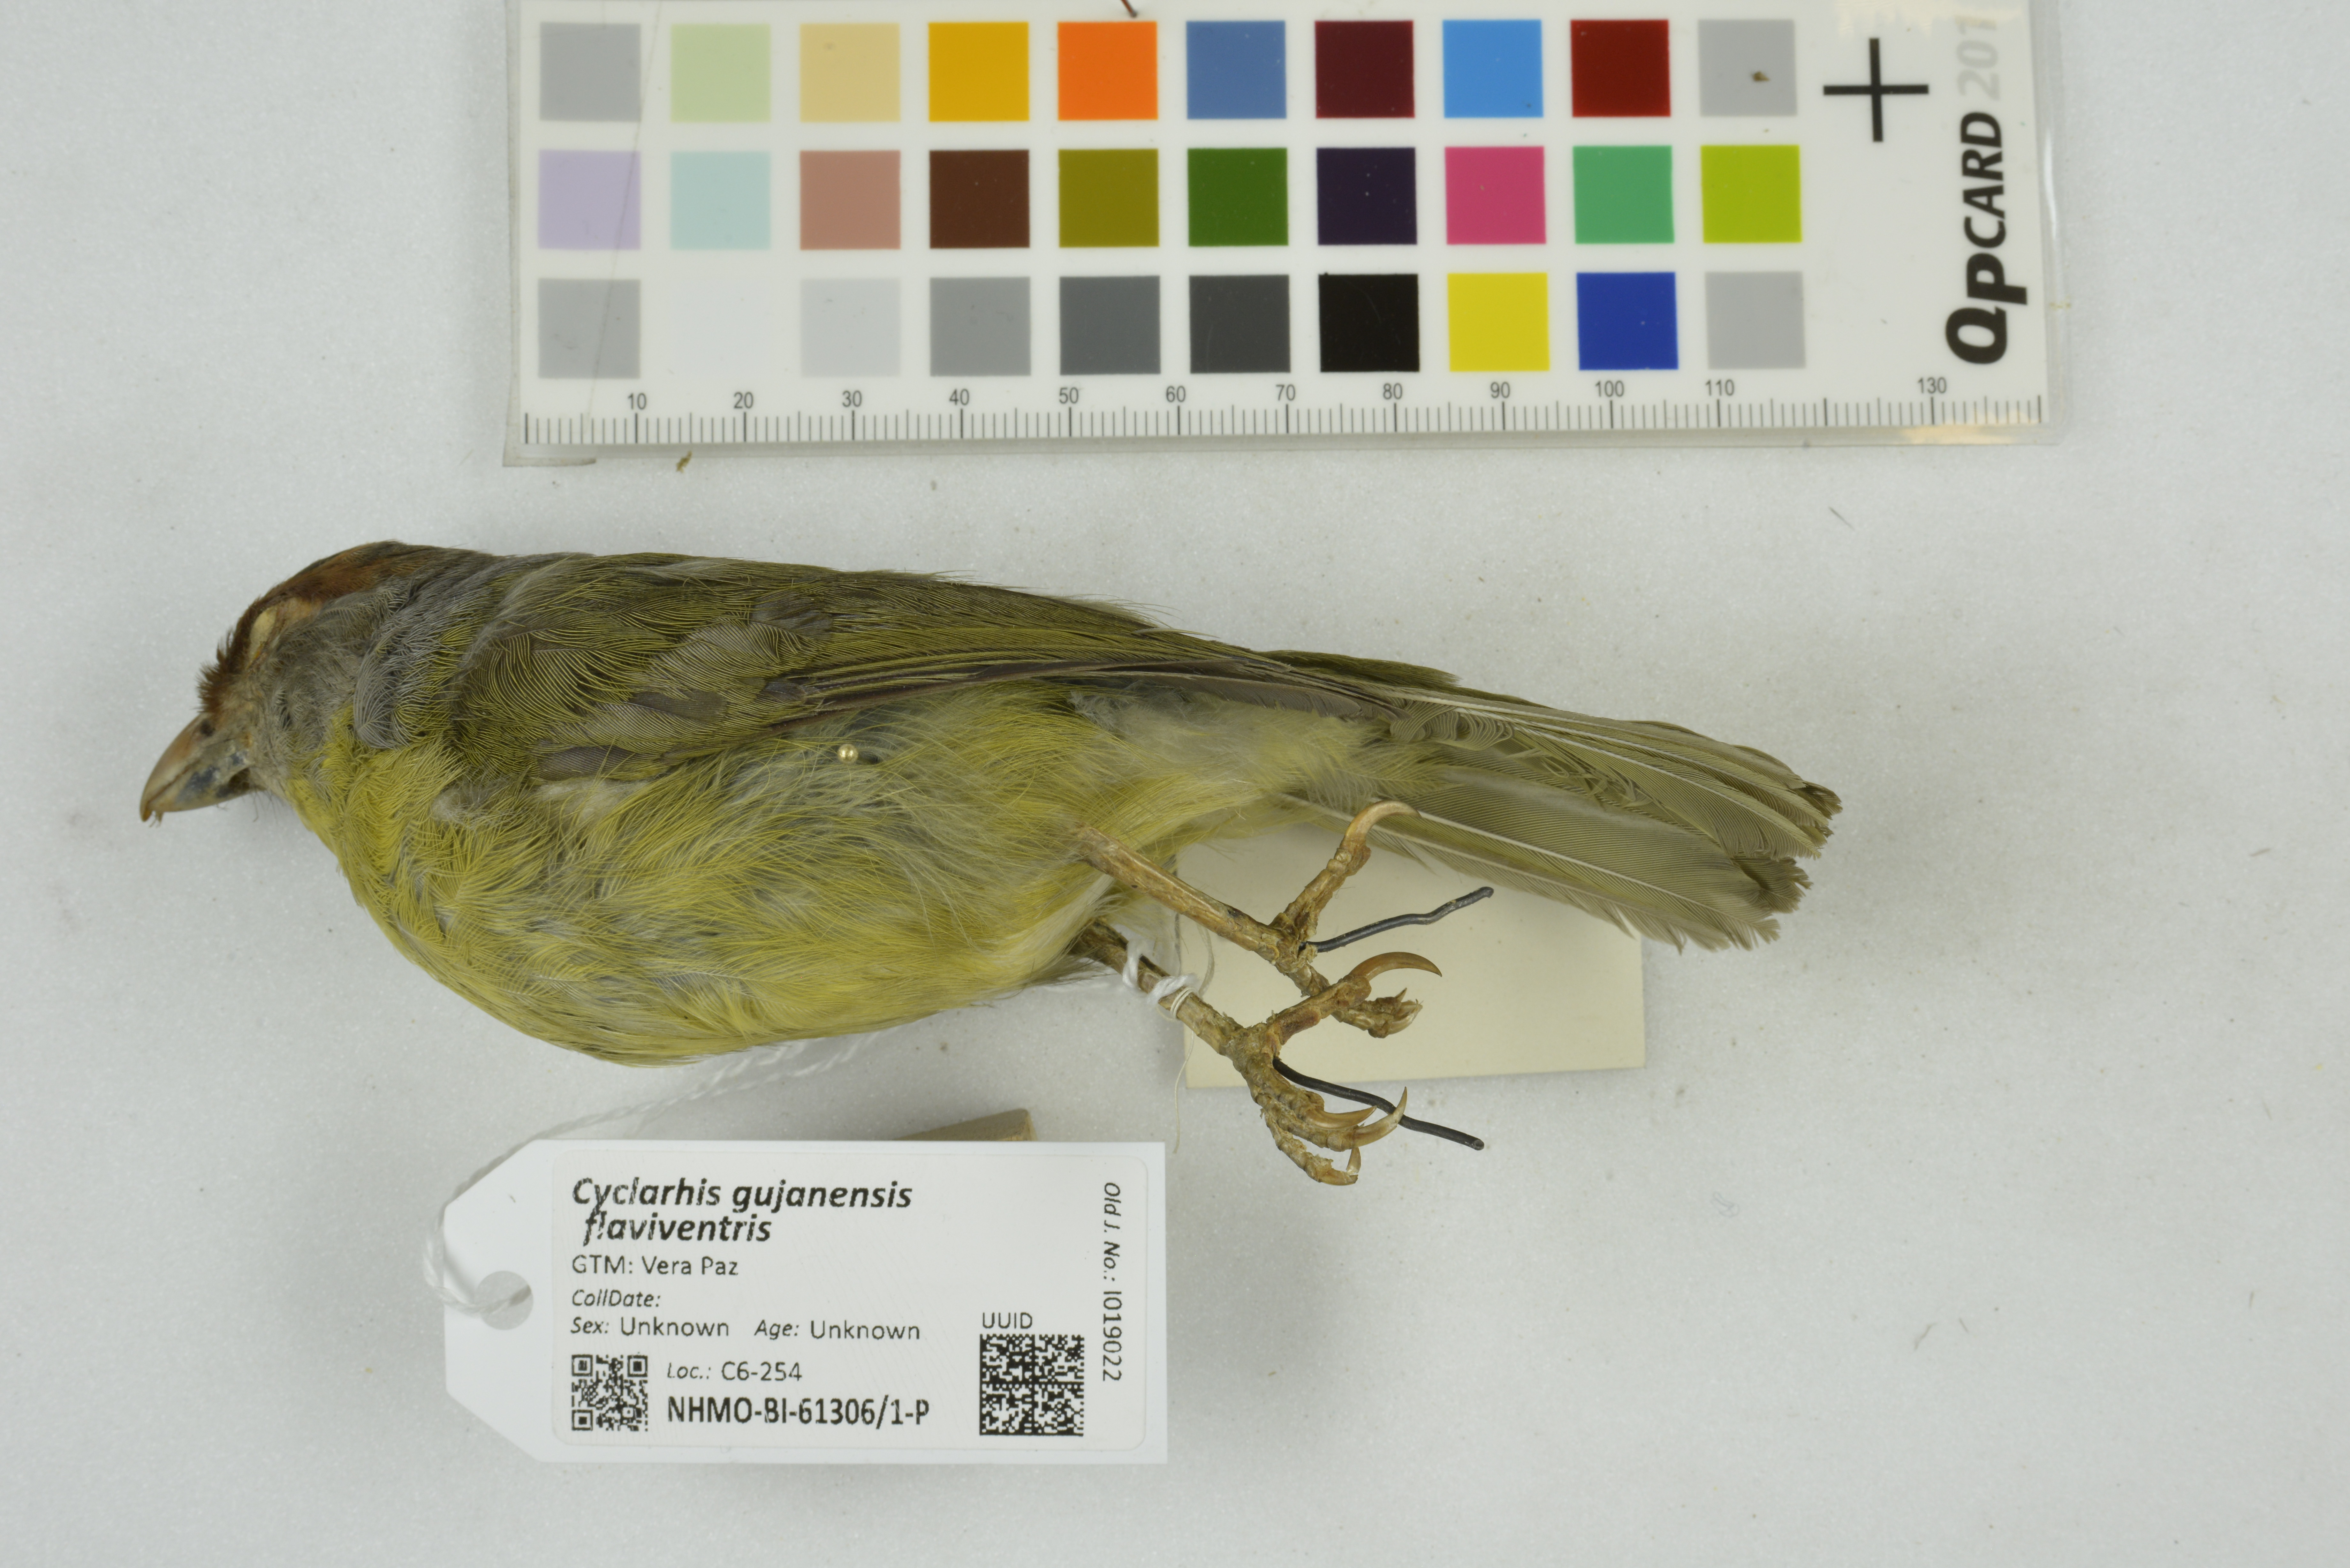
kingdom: Animalia
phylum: Chordata
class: Aves
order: Passeriformes
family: Vireonidae
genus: Cyclarhis
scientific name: Cyclarhis gujanensis
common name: Rufous-browed peppershrike
